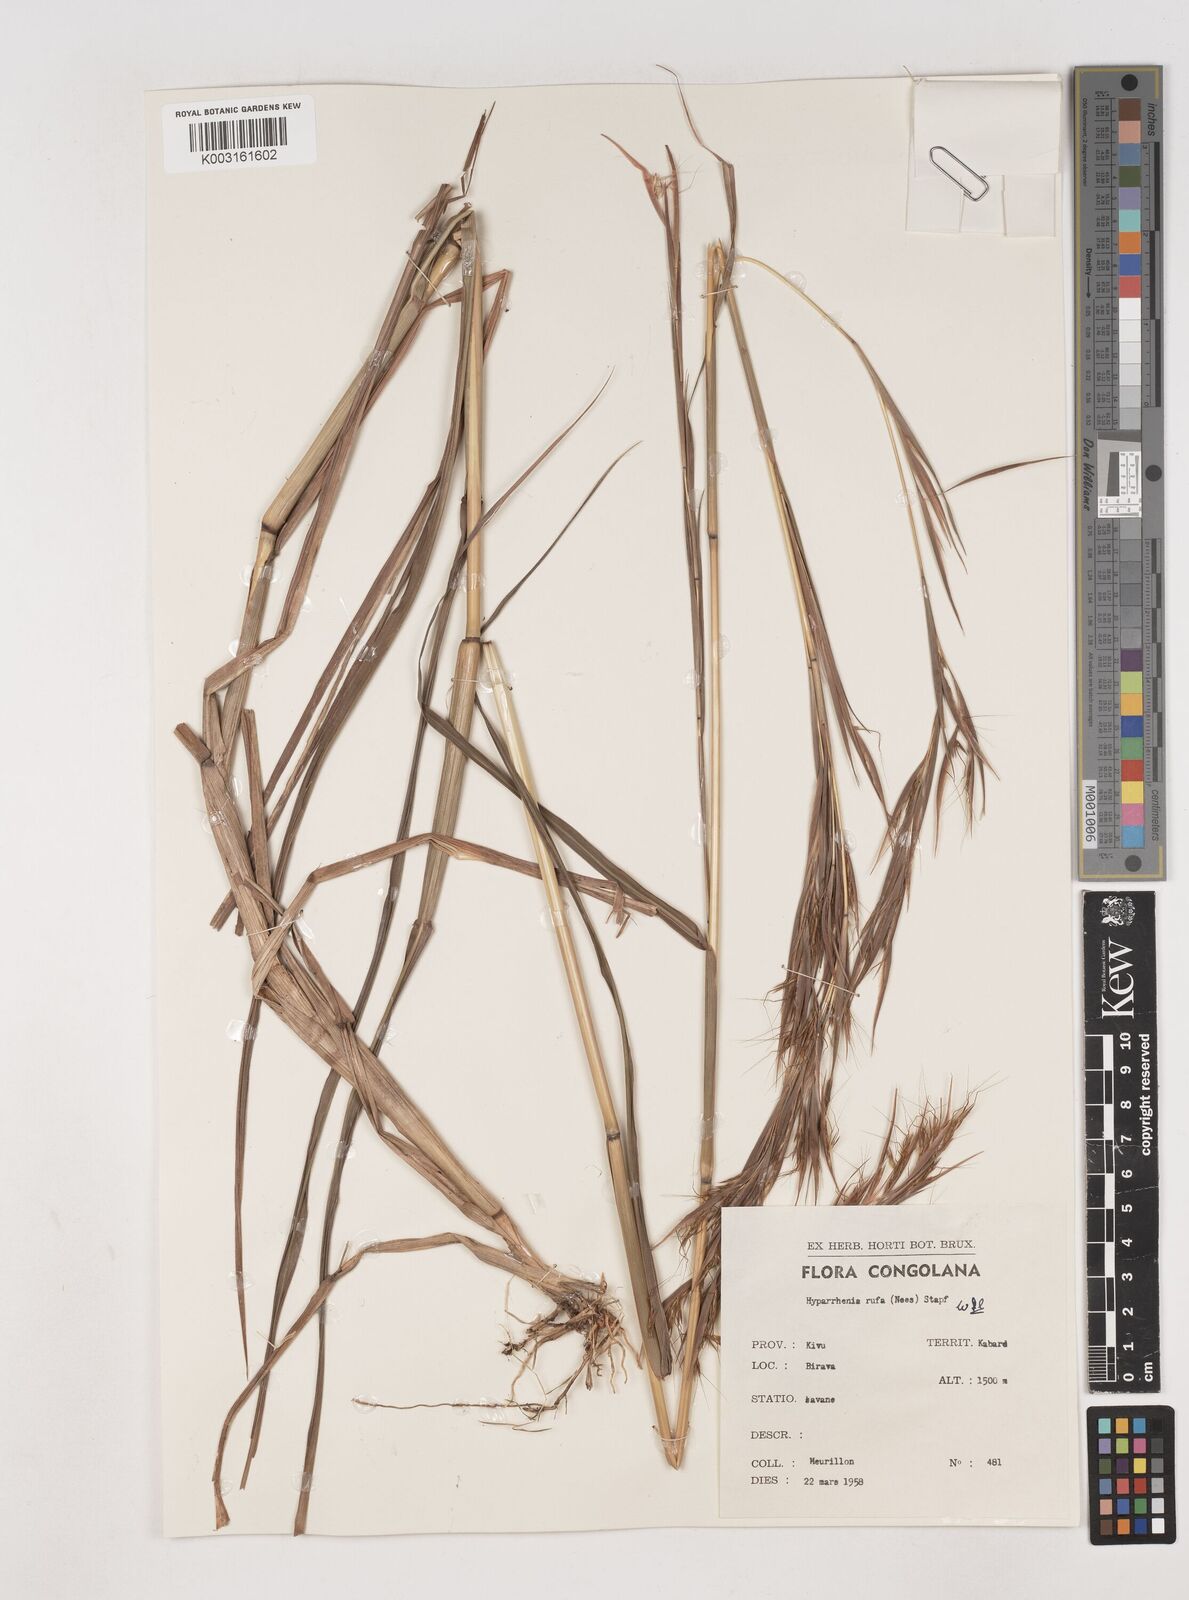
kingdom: Plantae
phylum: Tracheophyta
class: Liliopsida
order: Poales
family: Poaceae
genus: Hyparrhenia
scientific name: Hyparrhenia rufa
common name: Jaraguagrass
